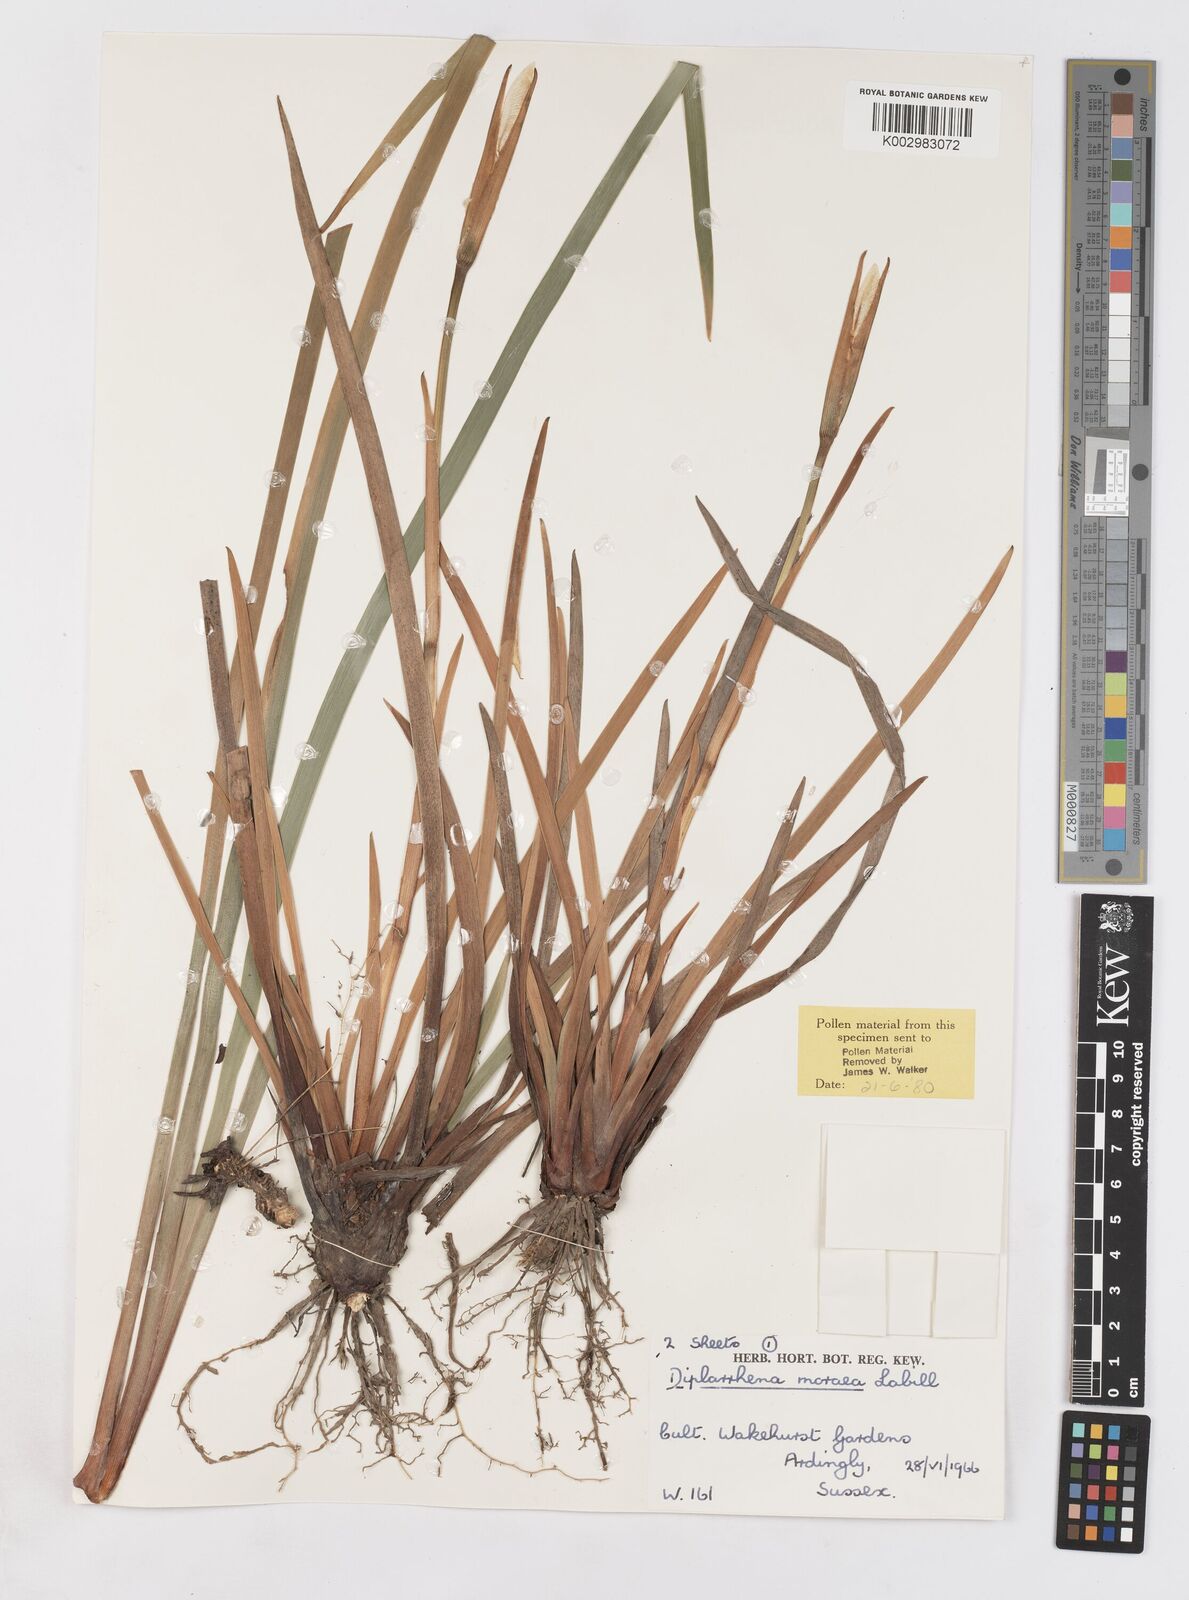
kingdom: Plantae
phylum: Tracheophyta
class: Liliopsida
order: Asparagales
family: Iridaceae
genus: Diplarrena
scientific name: Diplarrena moraea
